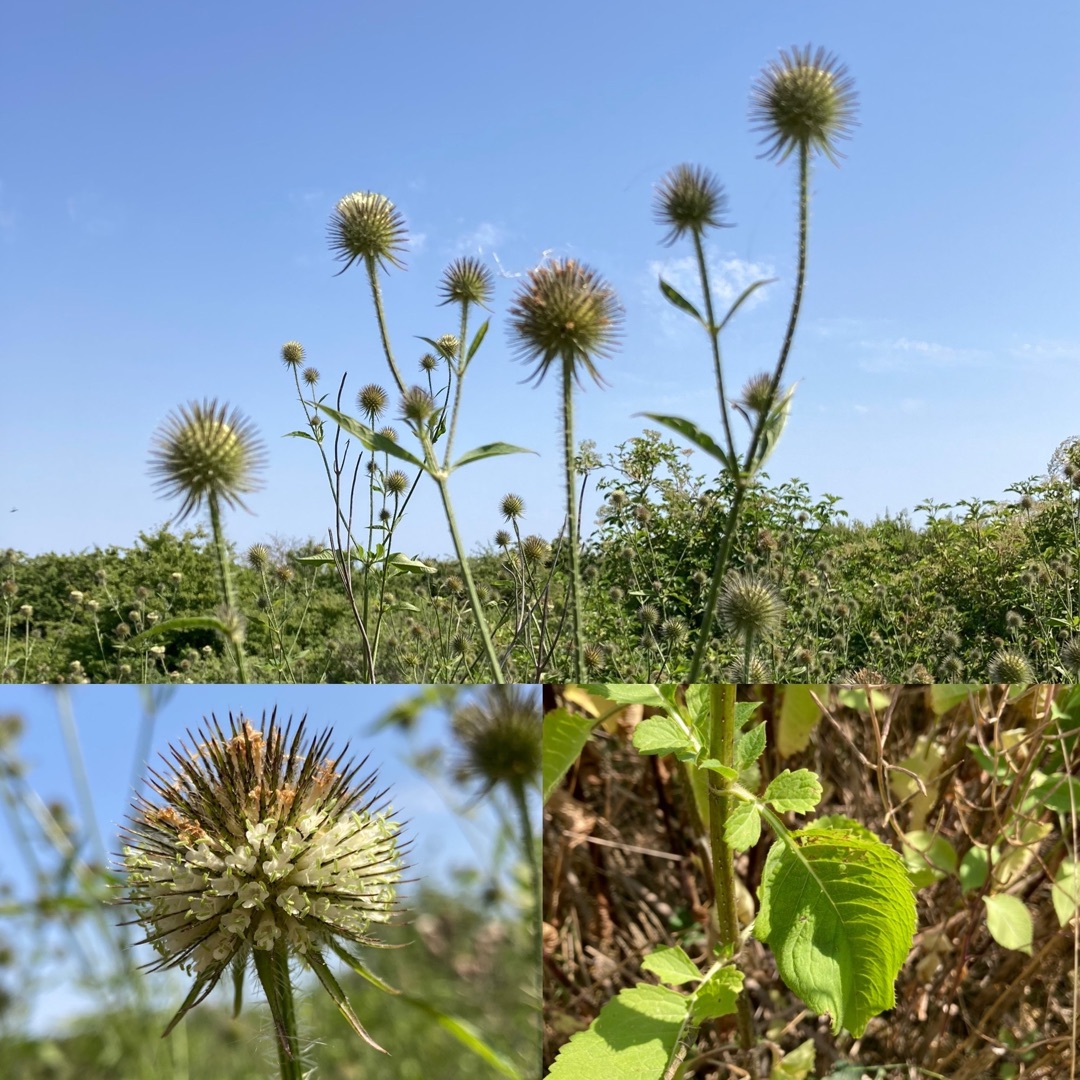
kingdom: Plantae
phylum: Tracheophyta
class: Magnoliopsida
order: Dipsacales
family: Caprifoliaceae
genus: Dipsacus
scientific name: Dipsacus strigosus
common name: Pindsvin-kartebolle
